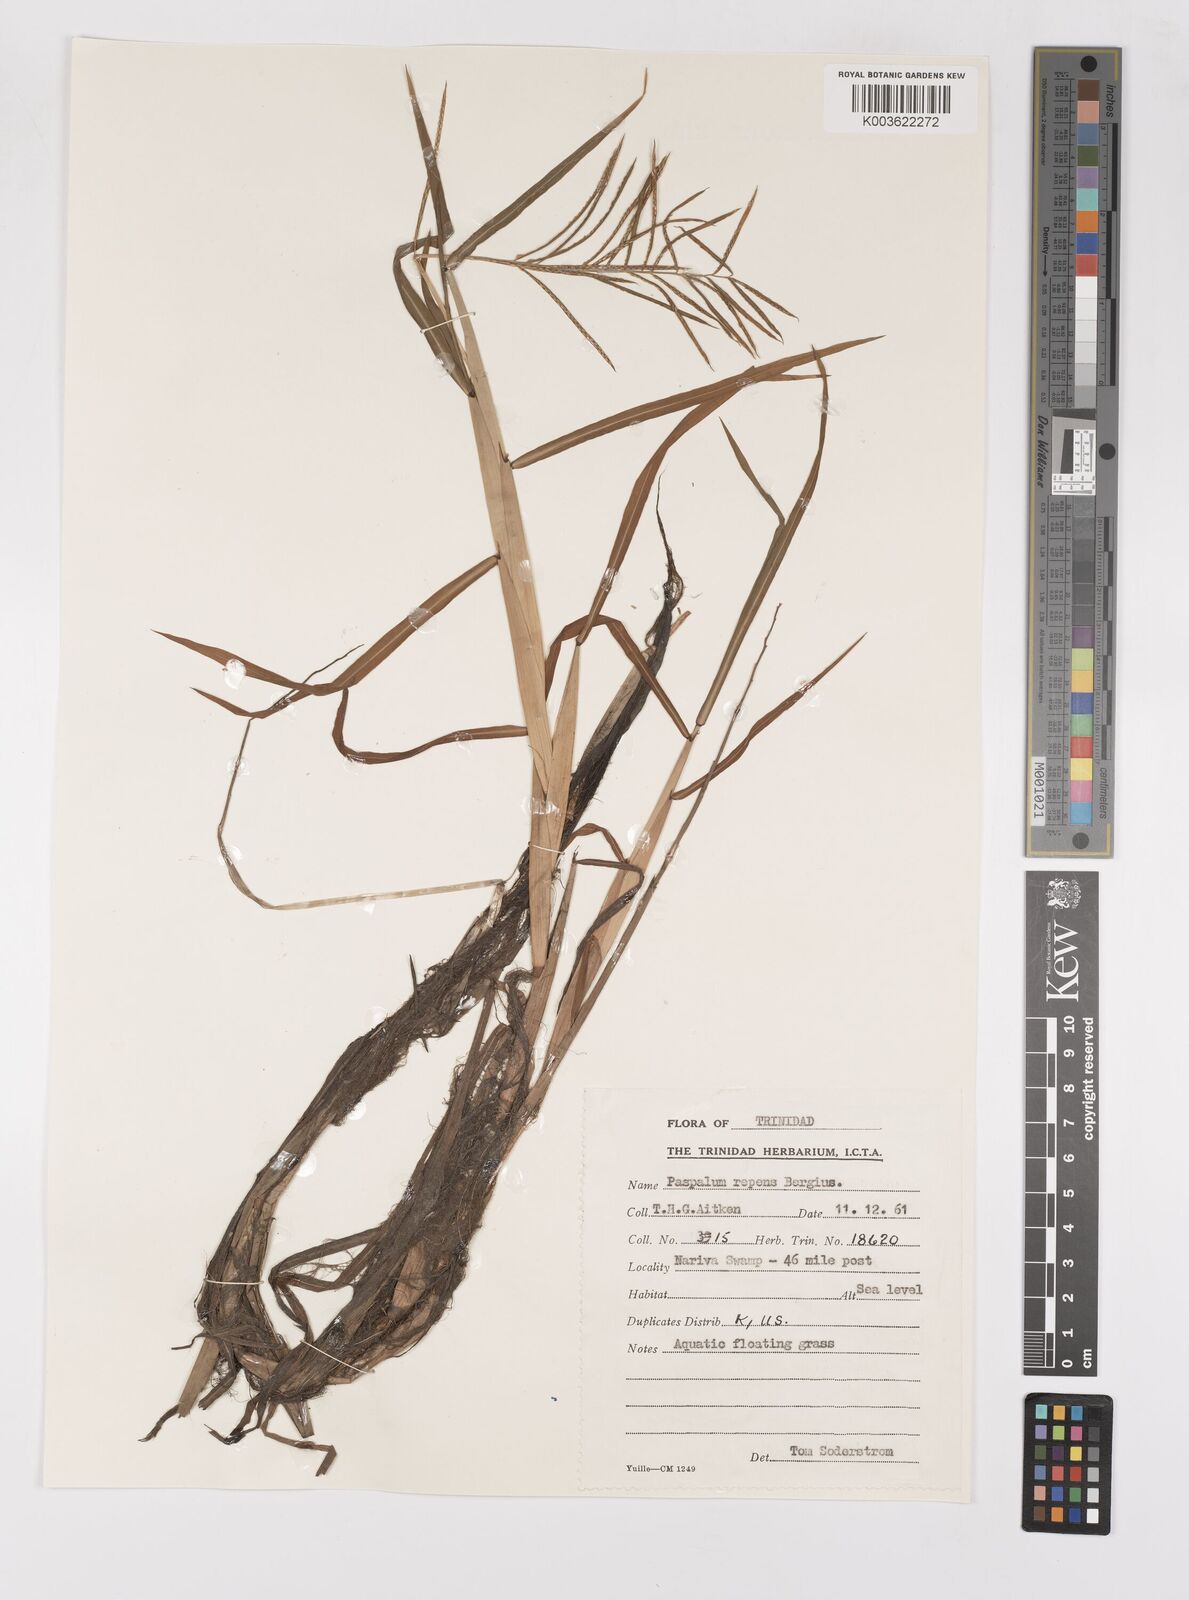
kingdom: Plantae
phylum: Tracheophyta
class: Liliopsida
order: Poales
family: Poaceae
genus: Paspalum
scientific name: Paspalum repens
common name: Water paspalum
